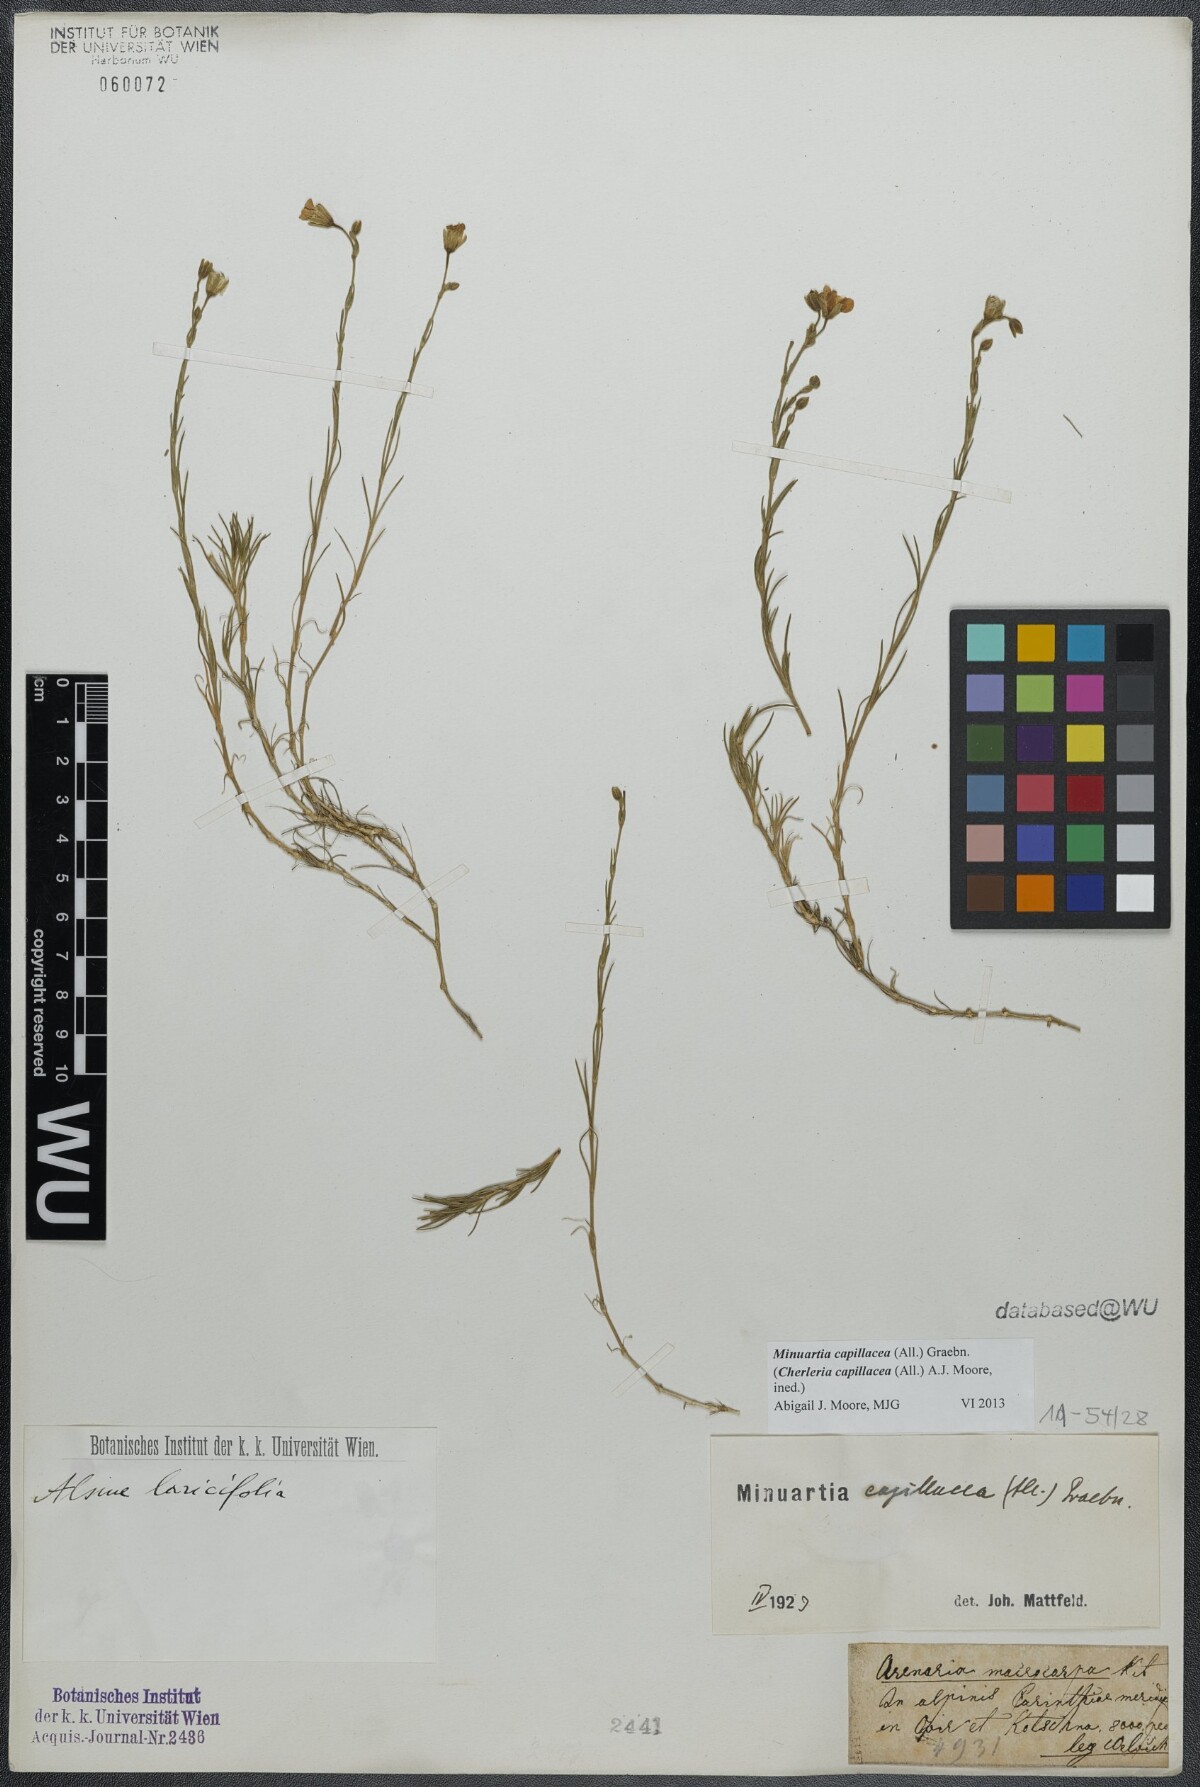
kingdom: Plantae
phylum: Tracheophyta
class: Magnoliopsida
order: Caryophyllales
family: Caryophyllaceae
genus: Cherleria
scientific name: Cherleria capillacea
